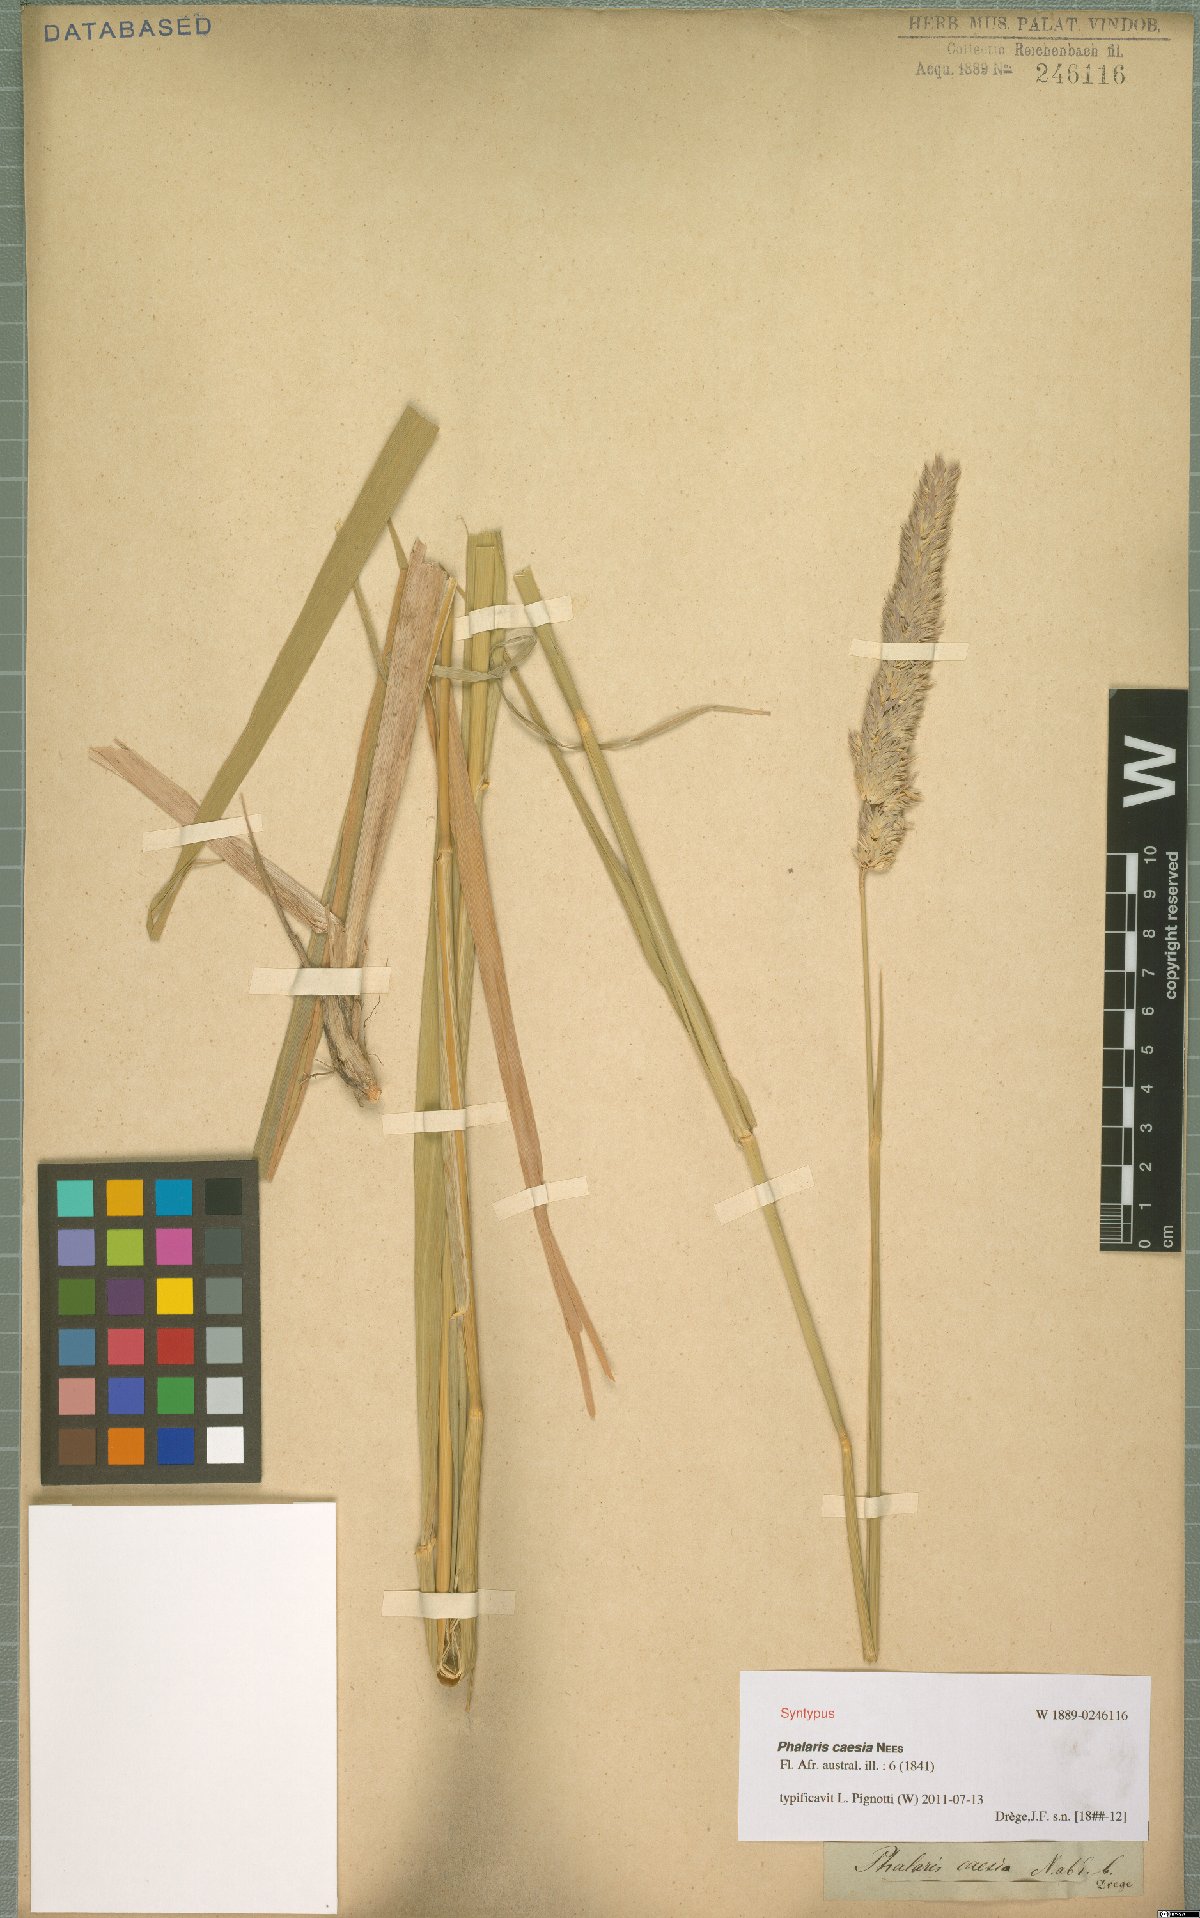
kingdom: Plantae
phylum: Tracheophyta
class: Liliopsida
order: Poales
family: Poaceae
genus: Phalaris
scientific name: Phalaris arundinacea
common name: Reed canary-grass
